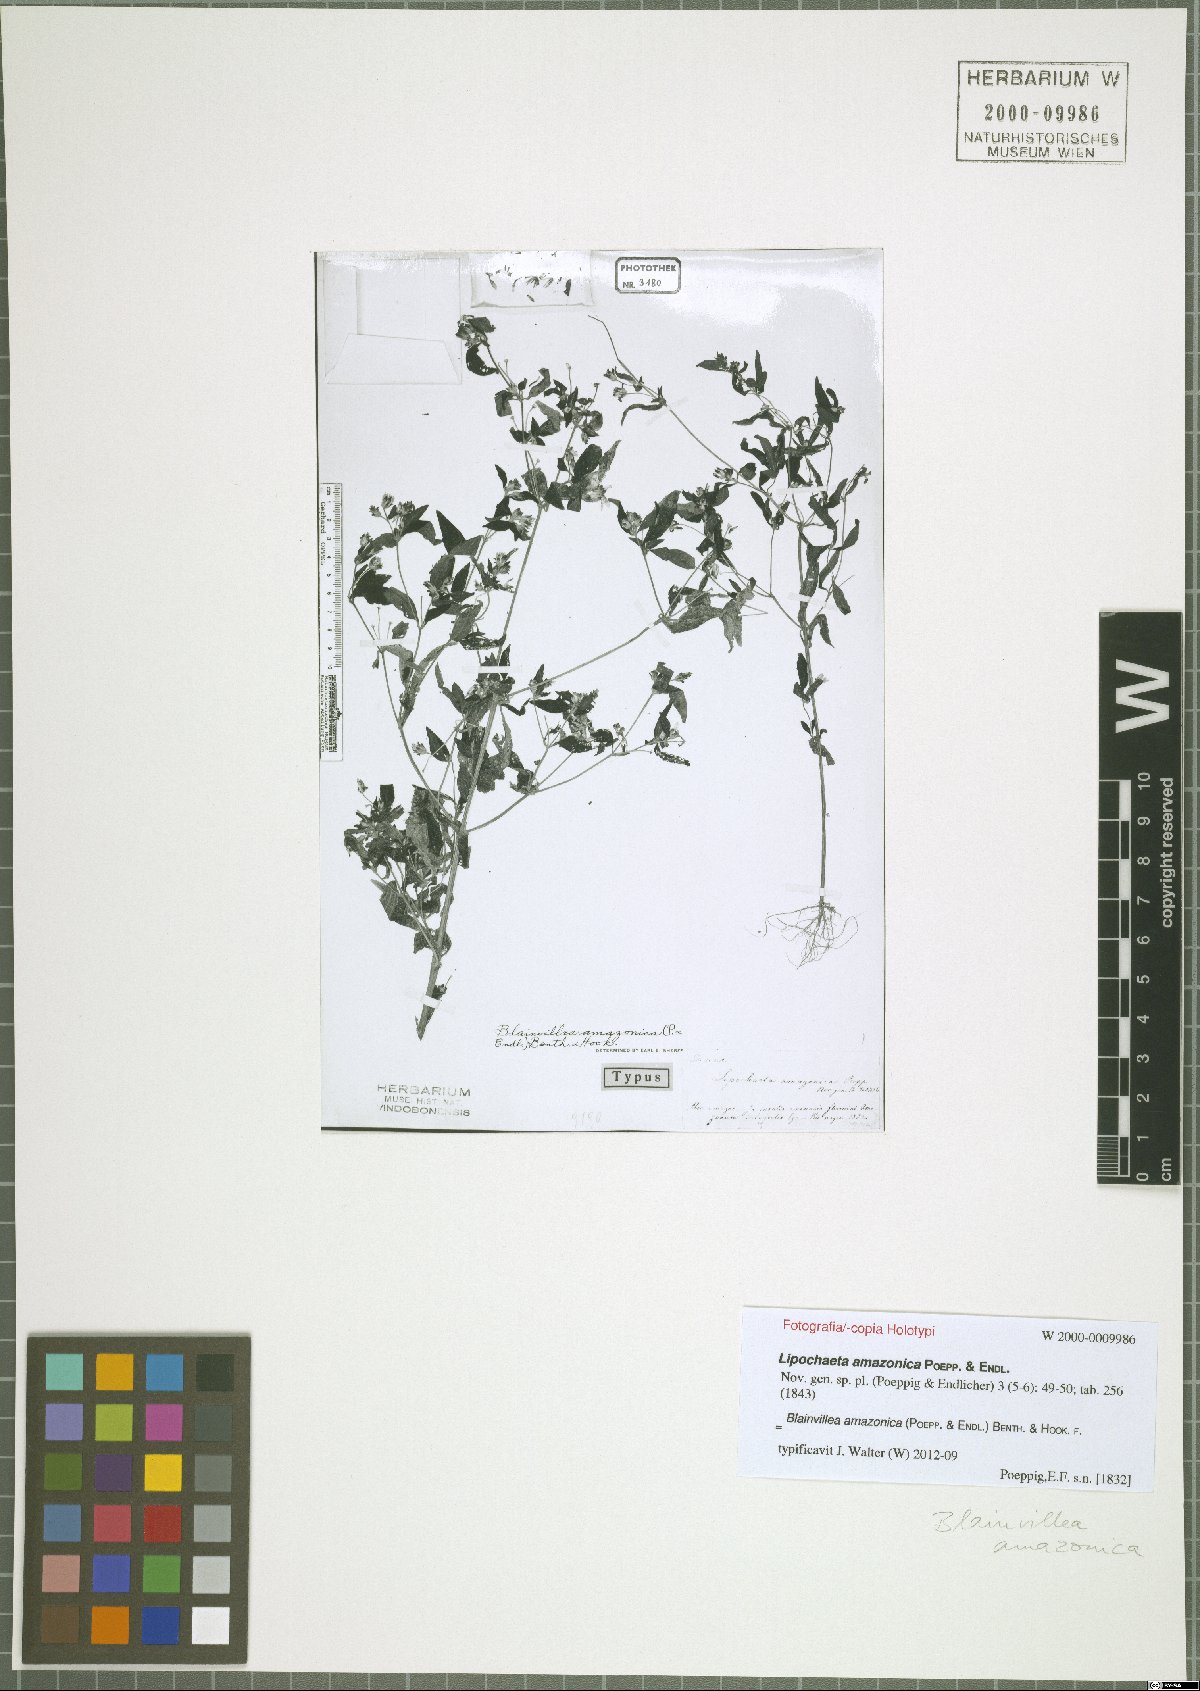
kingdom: Plantae
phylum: Tracheophyta
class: Magnoliopsida
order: Asterales
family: Asteraceae
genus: Blainvillea
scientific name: Blainvillea dichotoma
